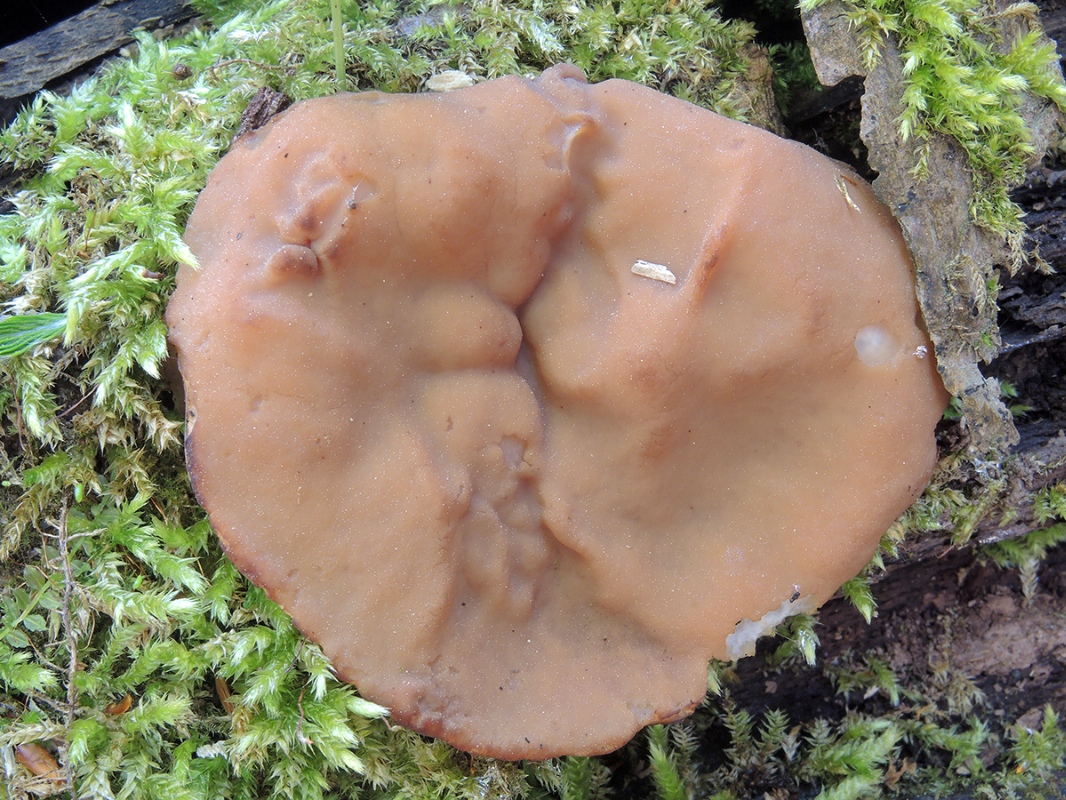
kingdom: Fungi
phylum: Ascomycota
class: Pezizomycetes
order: Pezizales
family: Discinaceae
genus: Gyromitra
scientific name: Gyromitra parma
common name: flad stenmorkel
